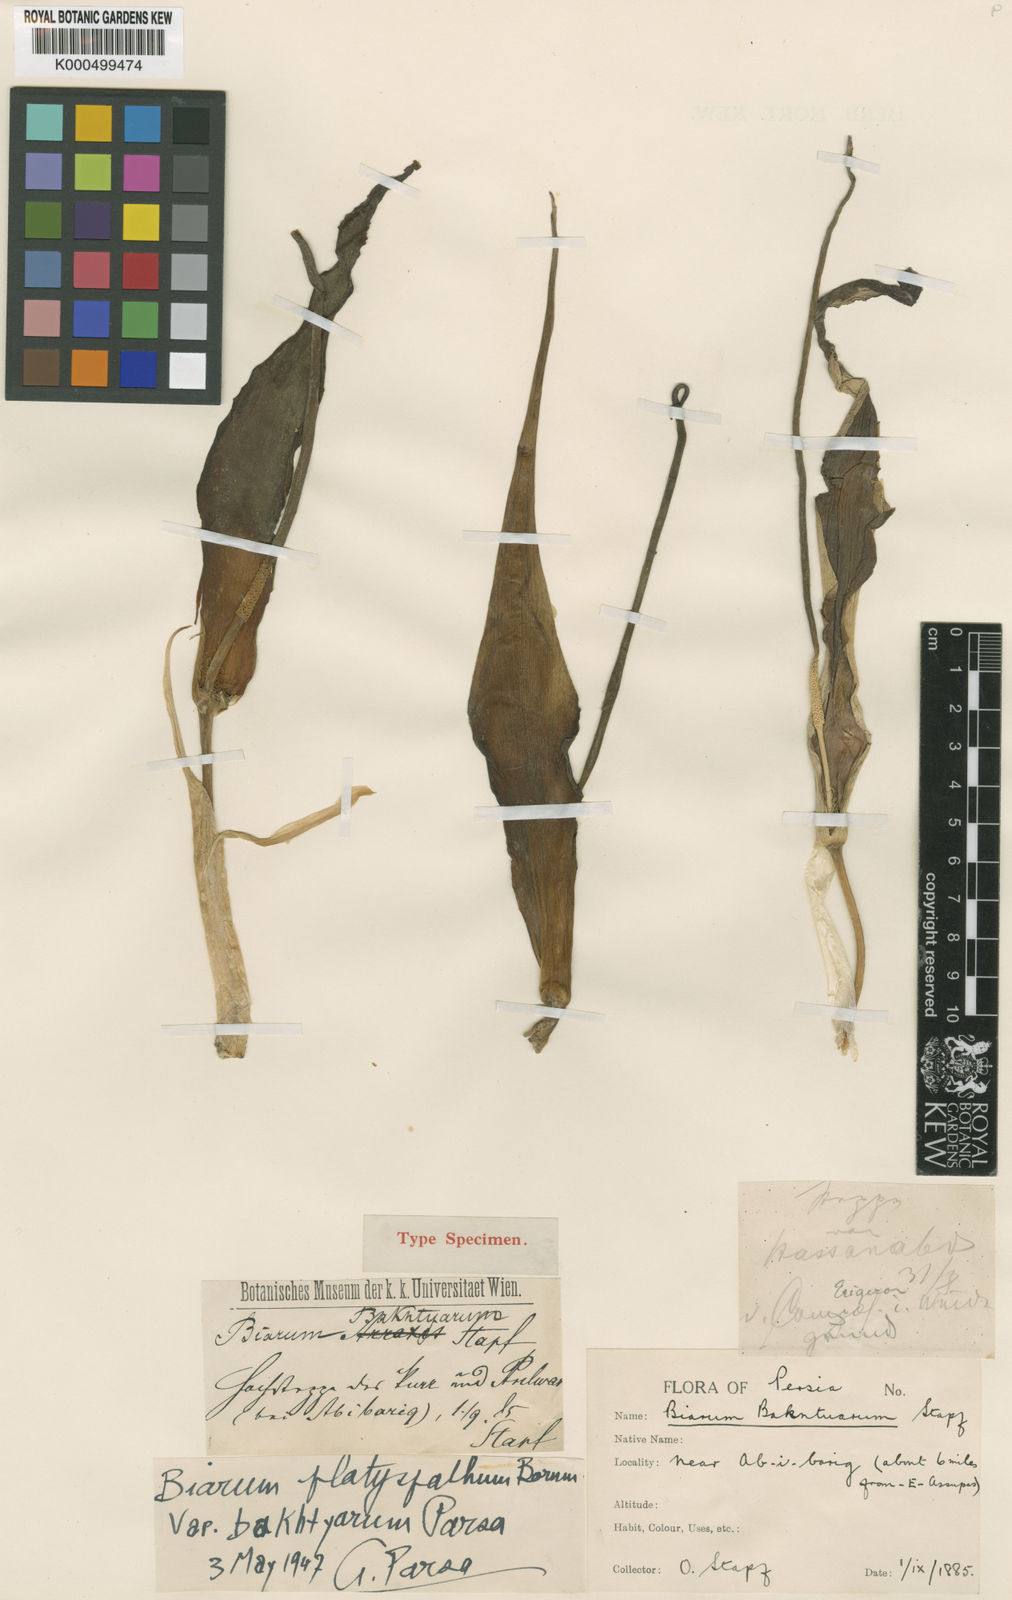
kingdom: Plantae
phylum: Tracheophyta
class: Liliopsida
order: Alismatales
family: Araceae
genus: Biarum
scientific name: Biarum carduchorum
